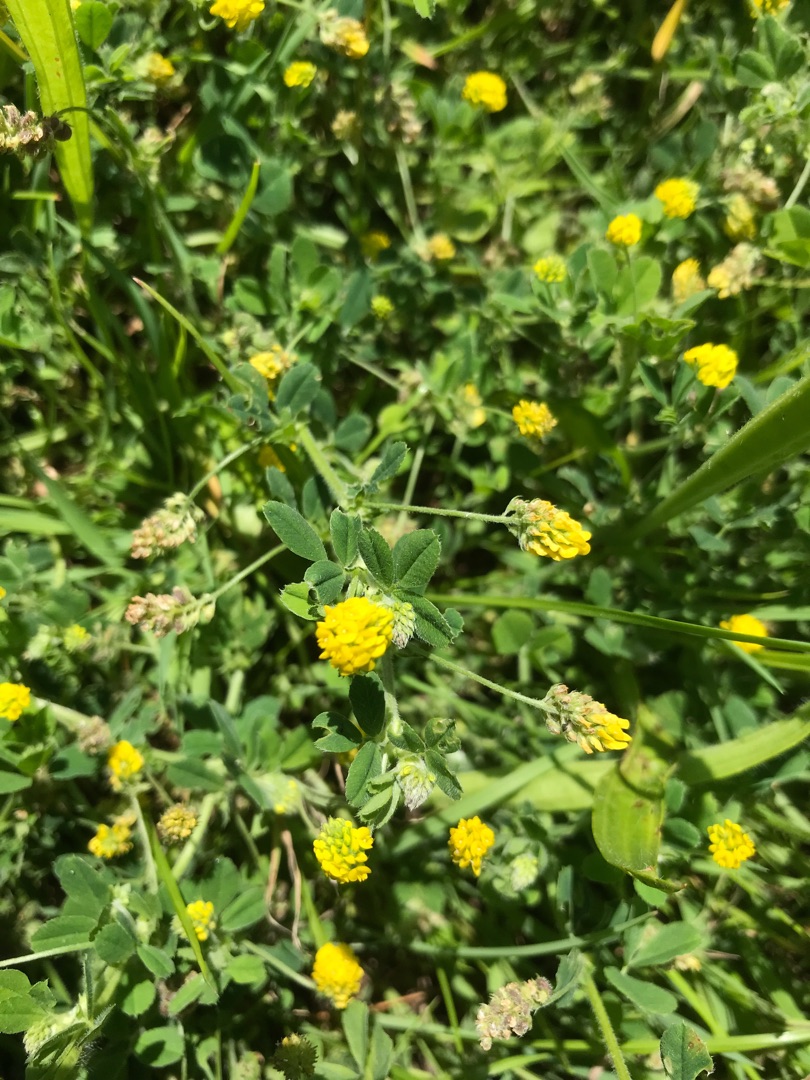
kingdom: Plantae
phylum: Tracheophyta
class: Magnoliopsida
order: Fabales
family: Fabaceae
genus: Medicago
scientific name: Medicago lupulina
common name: Humle-sneglebælg
